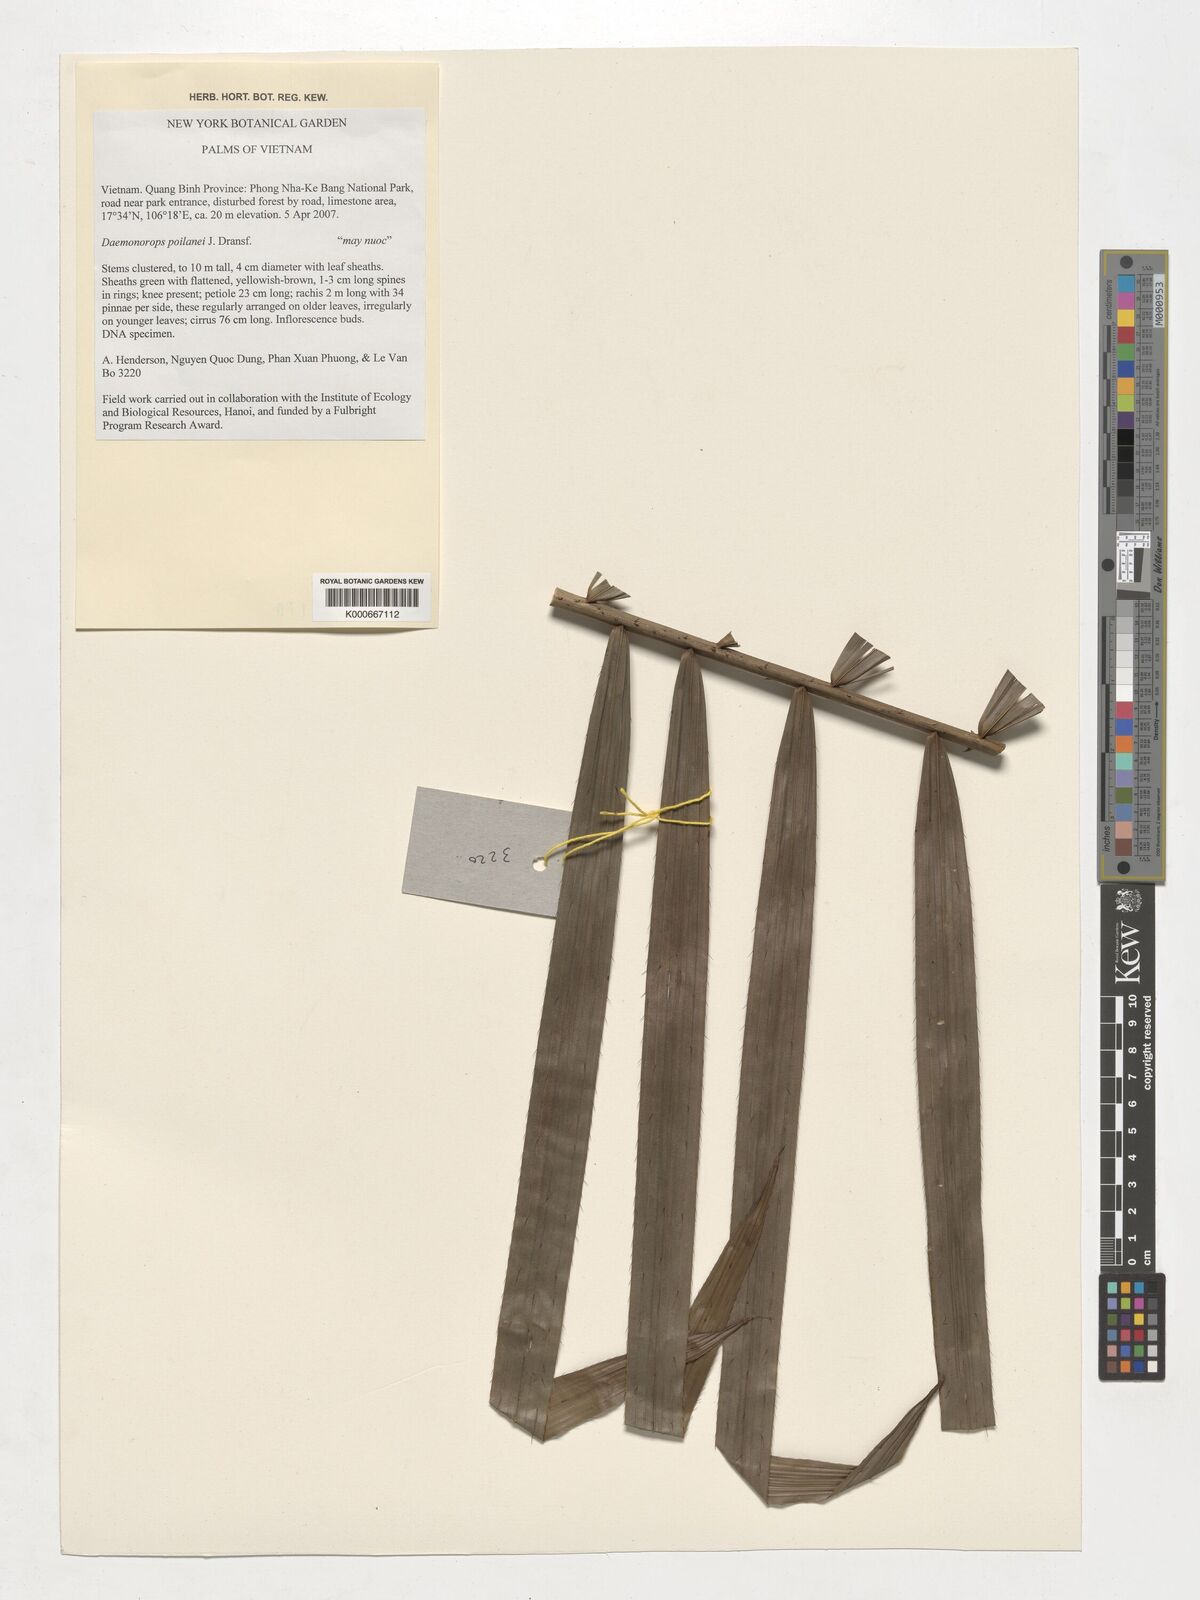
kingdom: Plantae
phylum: Tracheophyta
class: Liliopsida
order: Arecales
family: Arecaceae
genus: Calamus
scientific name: Calamus
